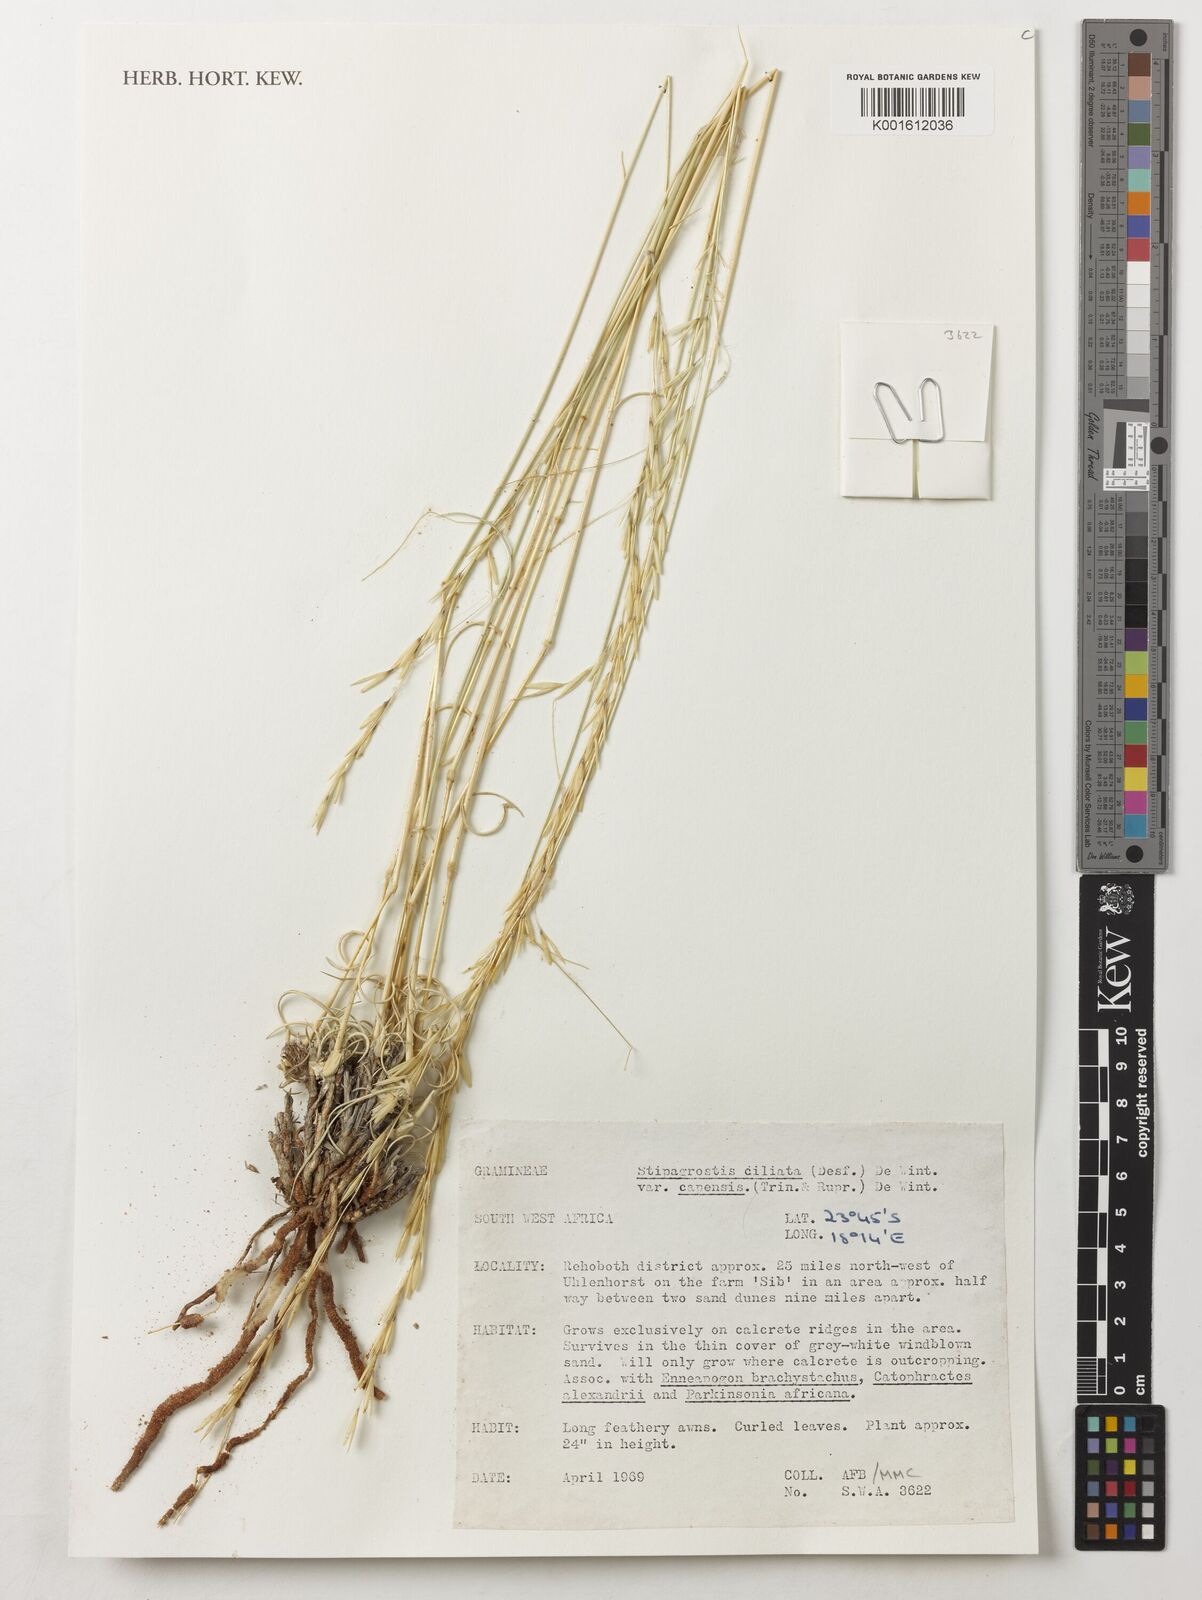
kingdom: Plantae
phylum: Tracheophyta
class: Liliopsida
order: Poales
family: Poaceae
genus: Stipagrostis
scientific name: Stipagrostis ciliata
